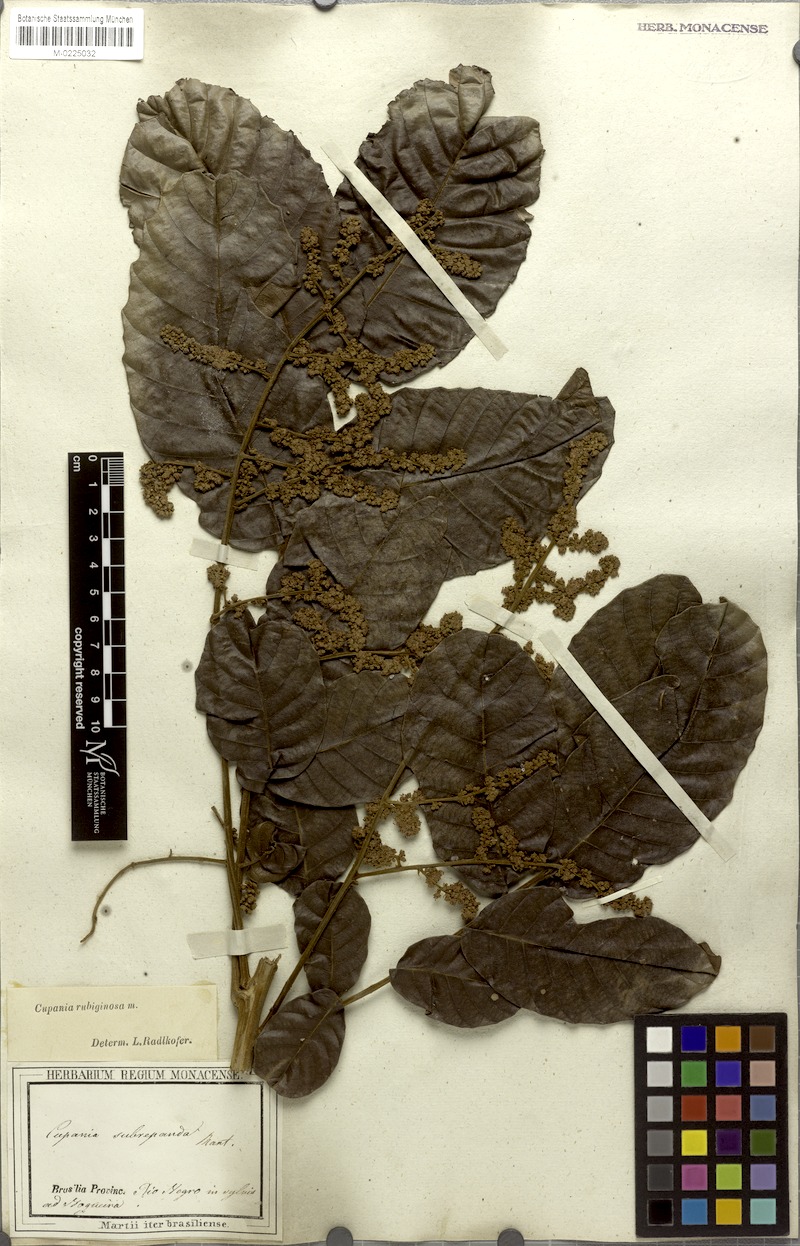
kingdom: Plantae
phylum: Tracheophyta
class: Magnoliopsida
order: Sapindales
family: Sapindaceae
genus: Cupania
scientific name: Cupania rubiginosa
